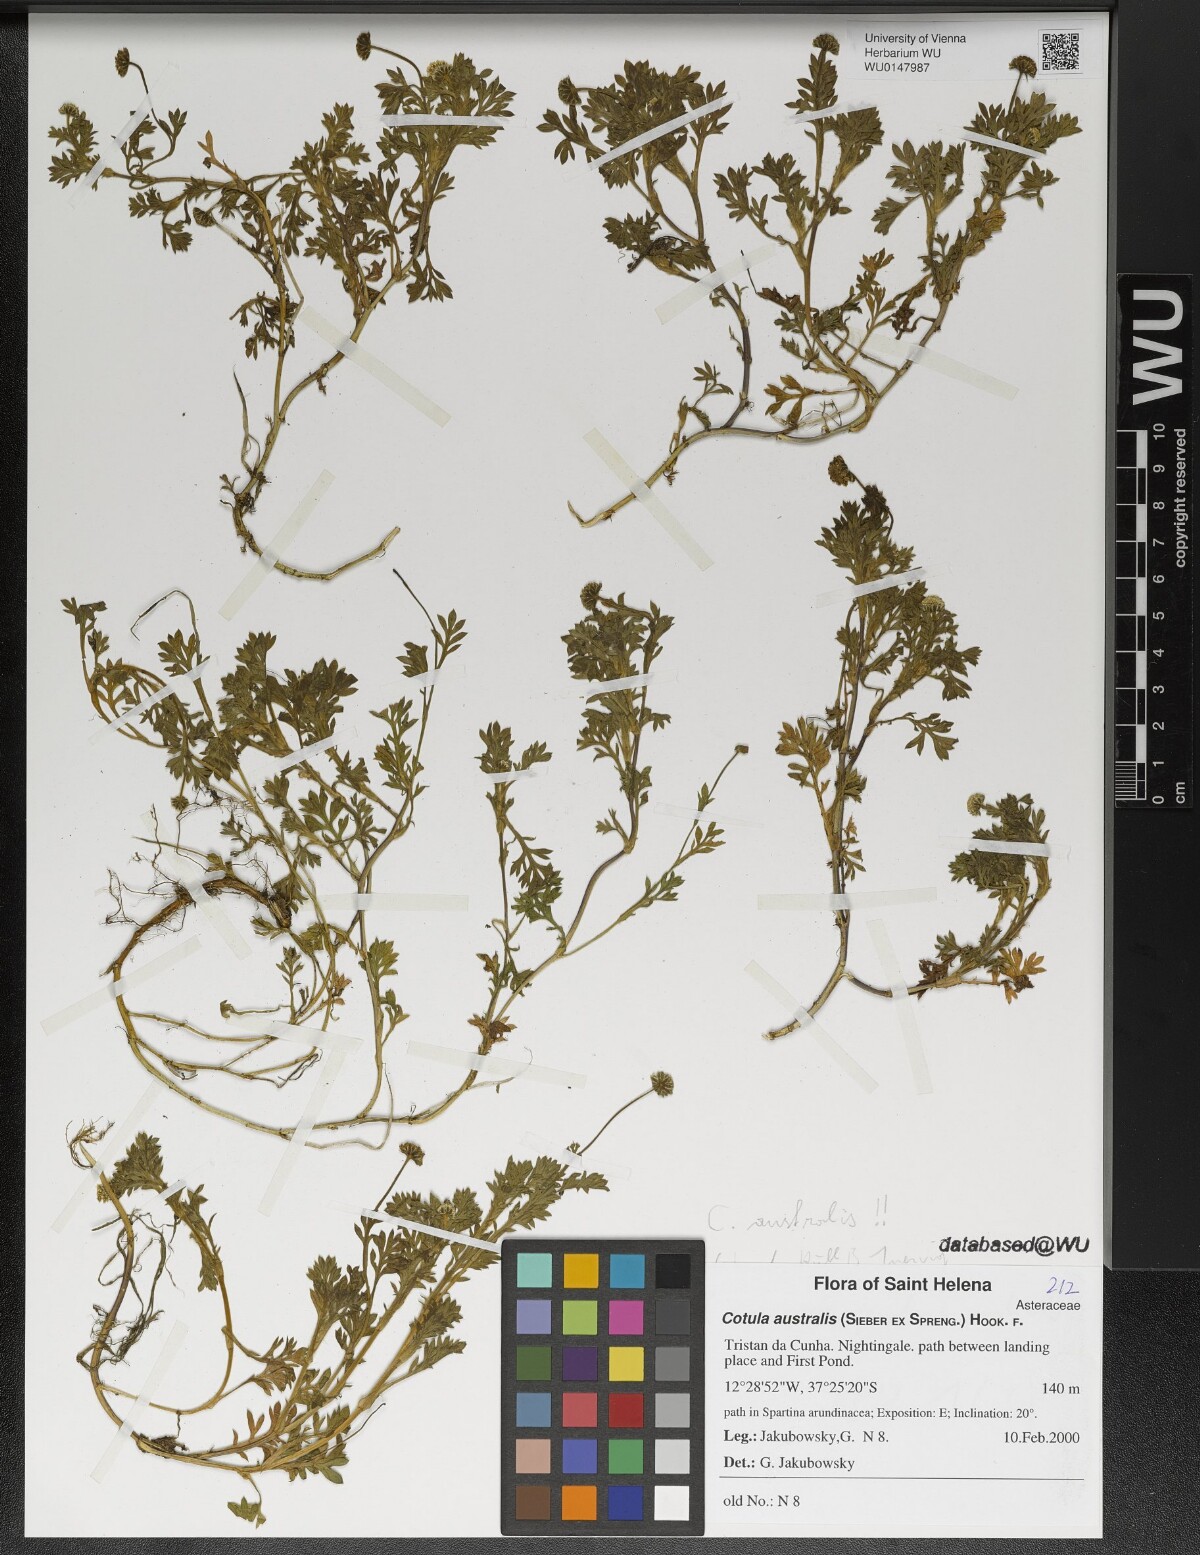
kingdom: Plantae
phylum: Tracheophyta
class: Magnoliopsida
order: Asterales
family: Asteraceae
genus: Cotula
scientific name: Cotula australis
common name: Australian waterbuttons
